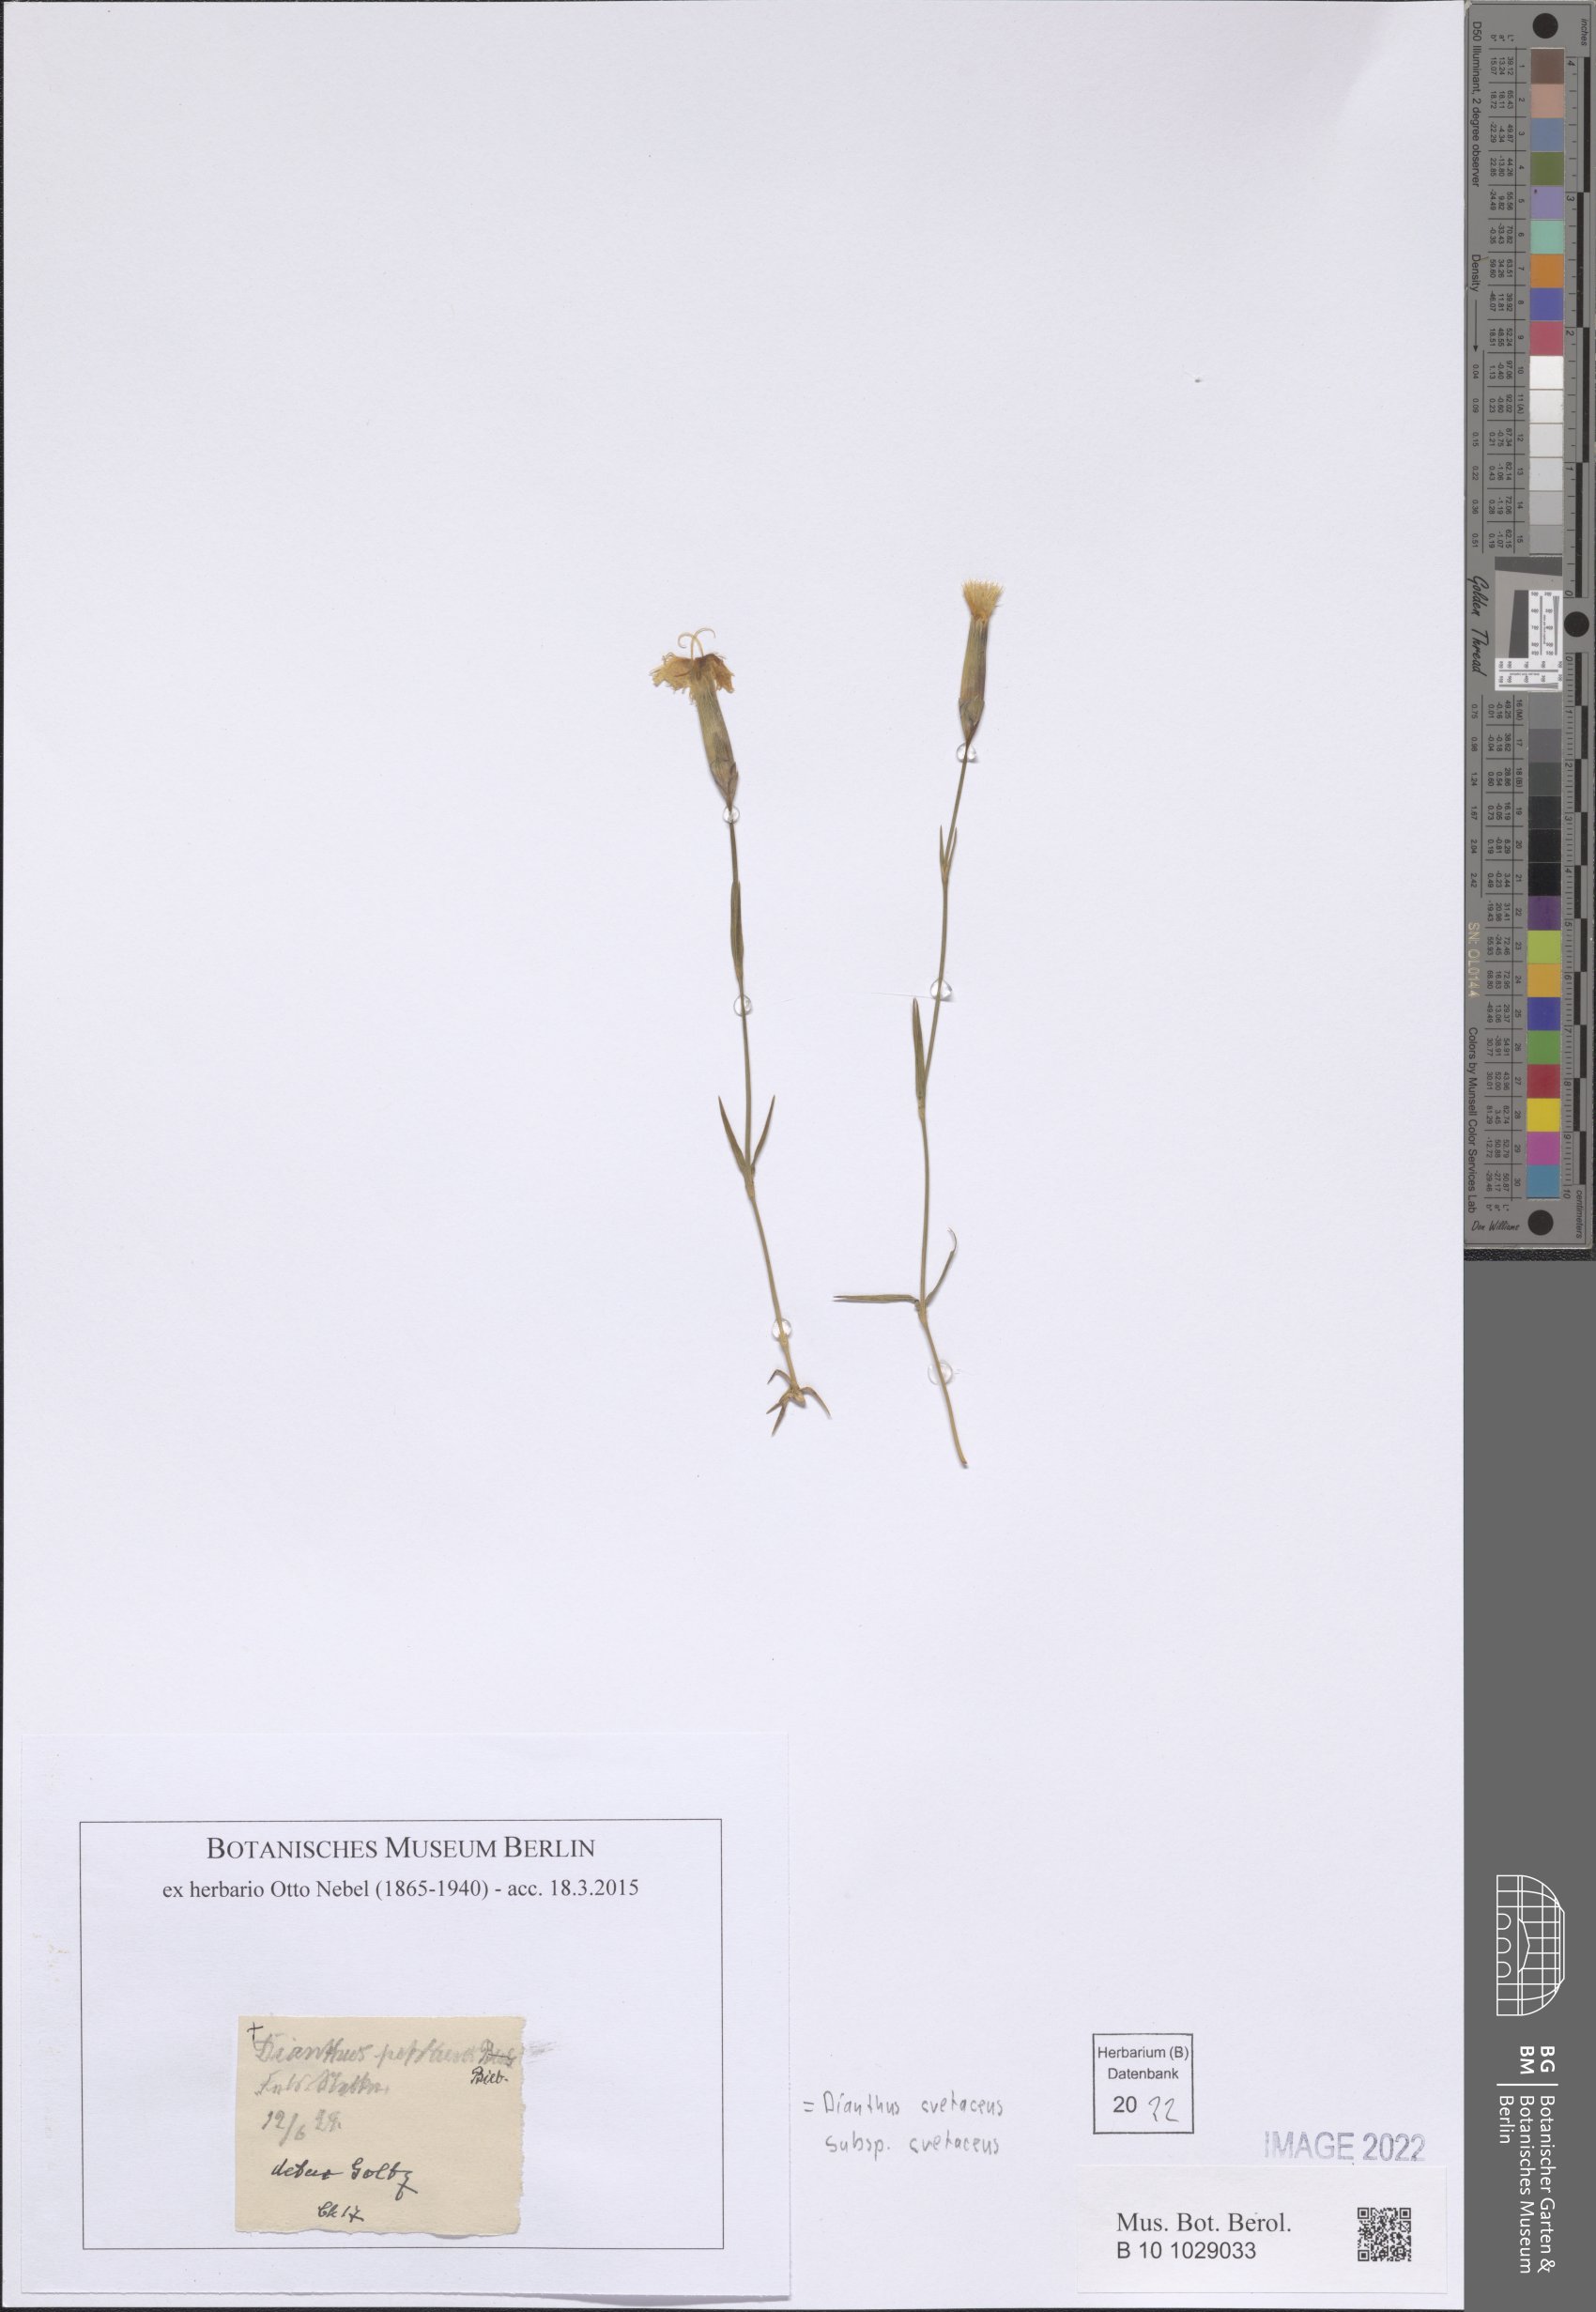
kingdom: Plantae
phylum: Tracheophyta
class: Magnoliopsida
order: Caryophyllales
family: Caryophyllaceae
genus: Dianthus
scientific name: Dianthus cretaceus
